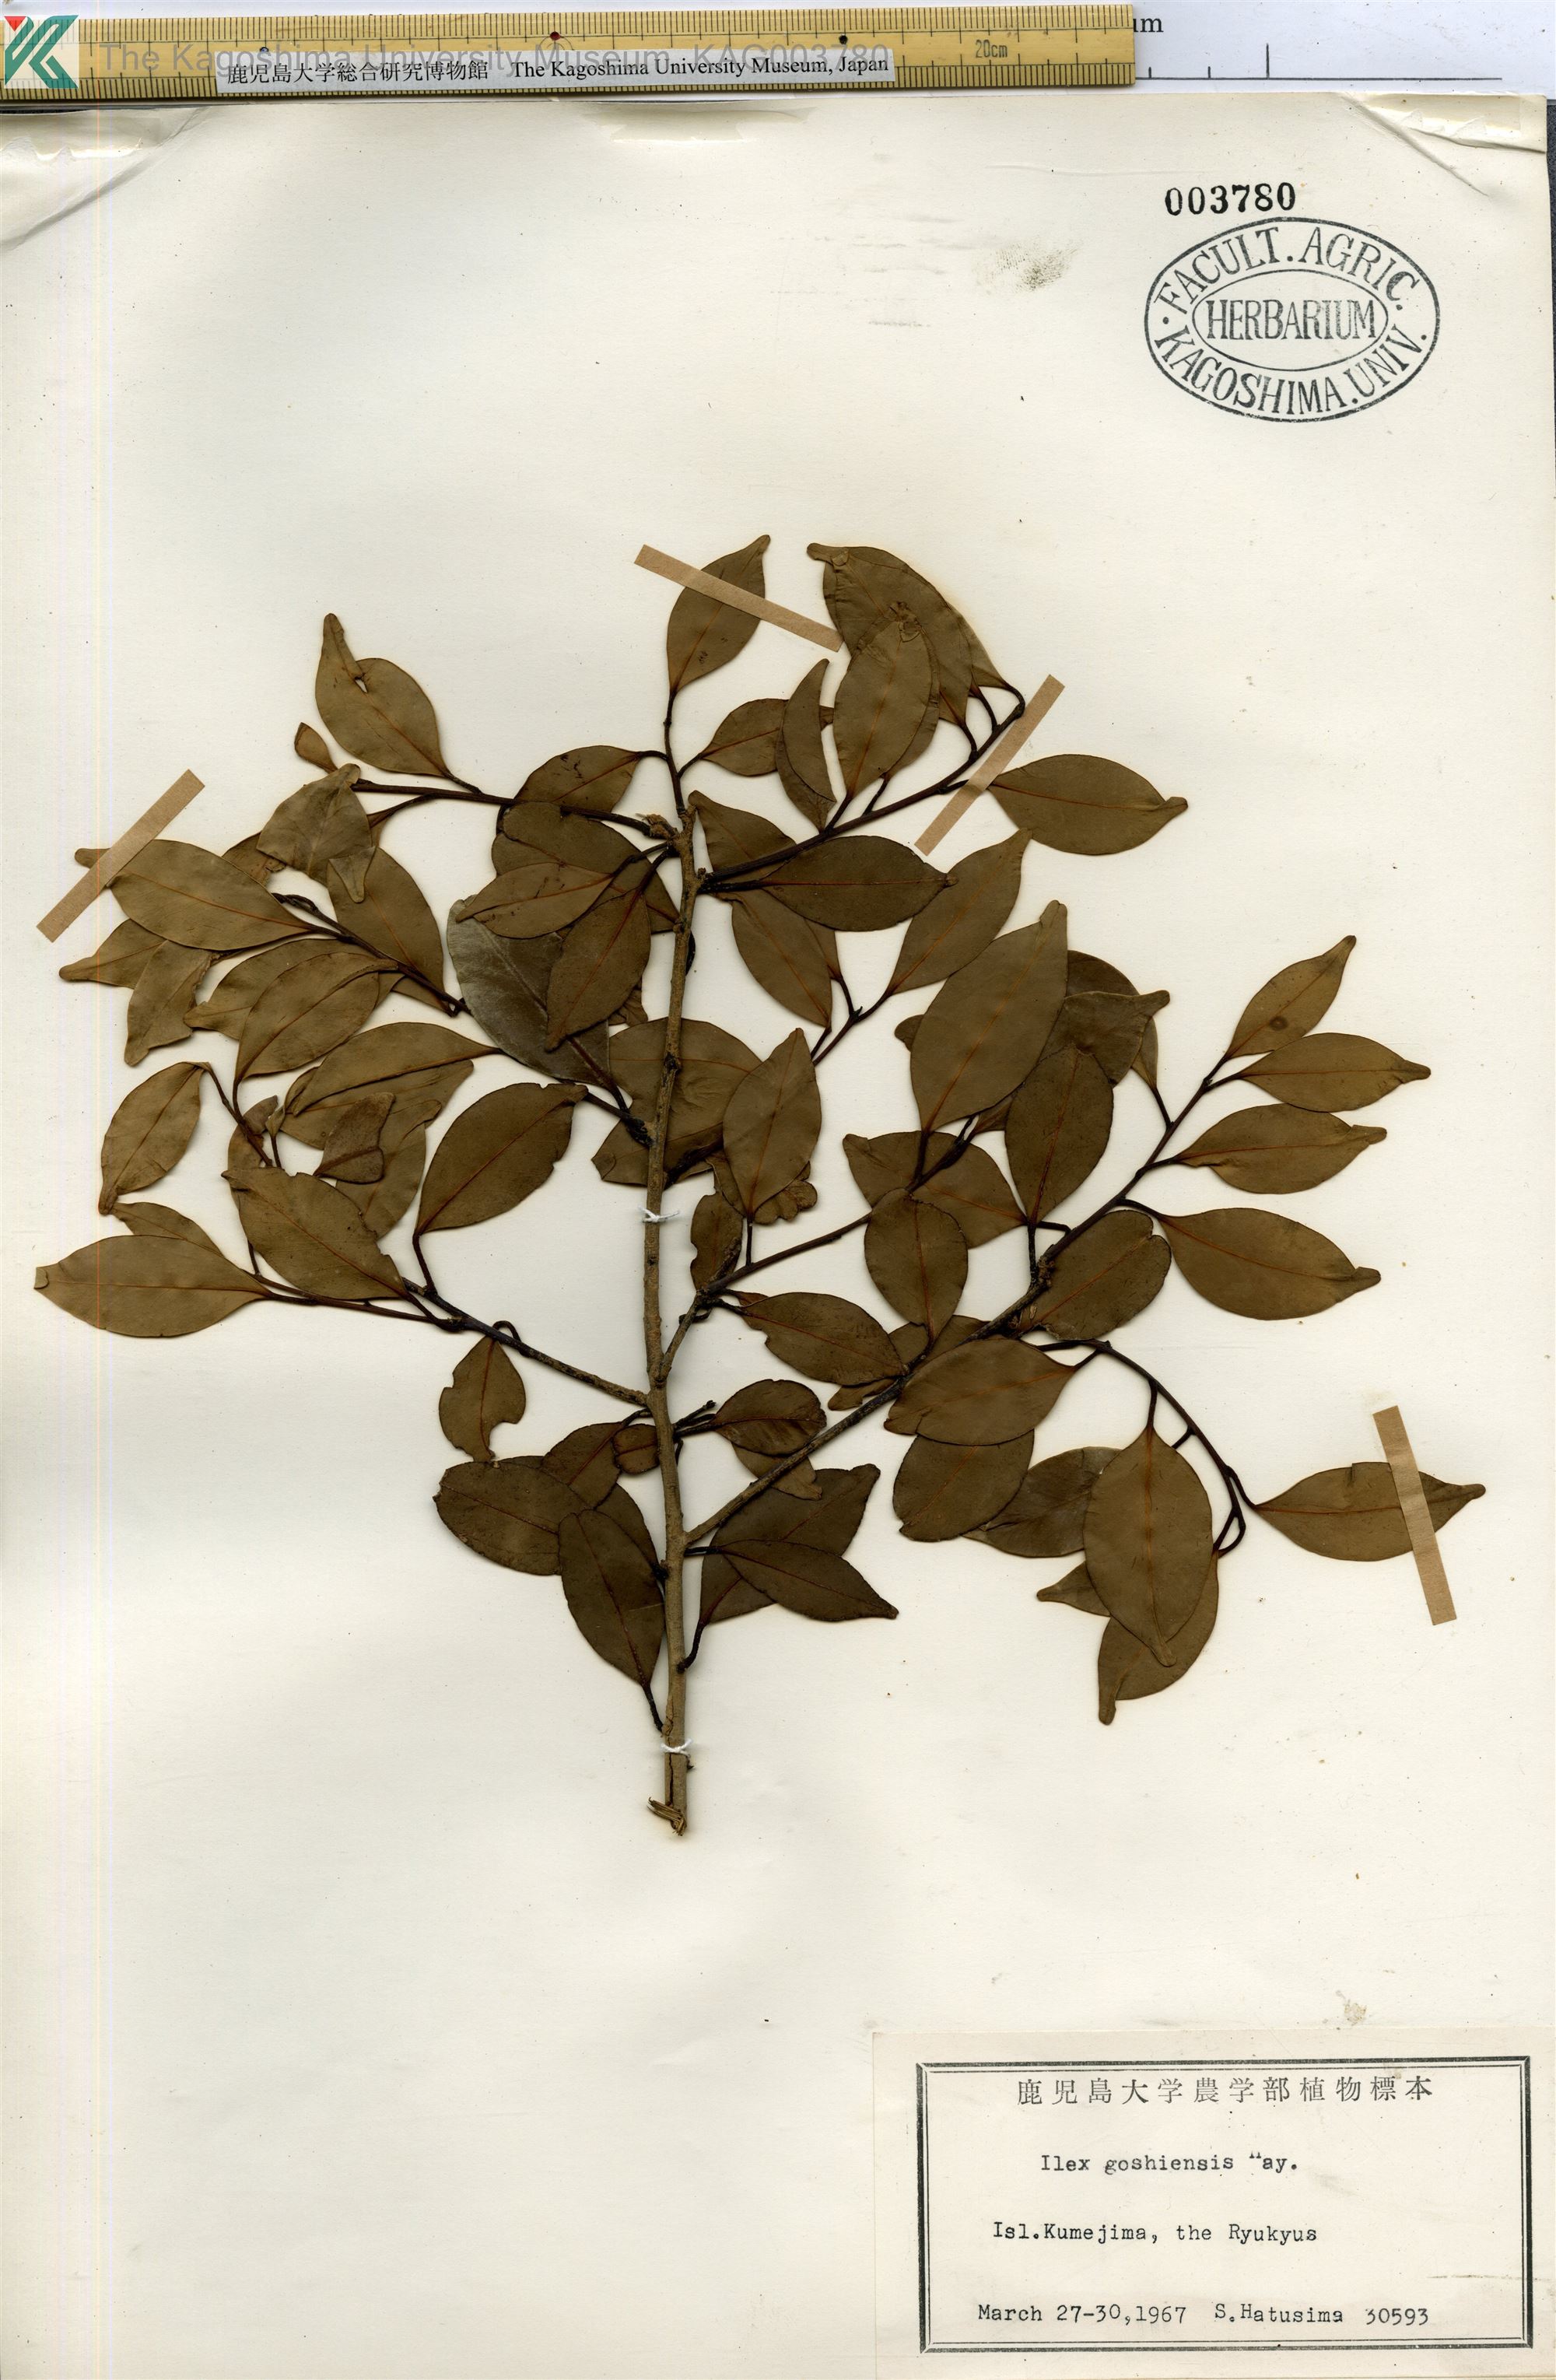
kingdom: Plantae
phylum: Tracheophyta
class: Magnoliopsida
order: Aquifoliales
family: Aquifoliaceae
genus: Ilex
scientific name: Ilex goshiensis
